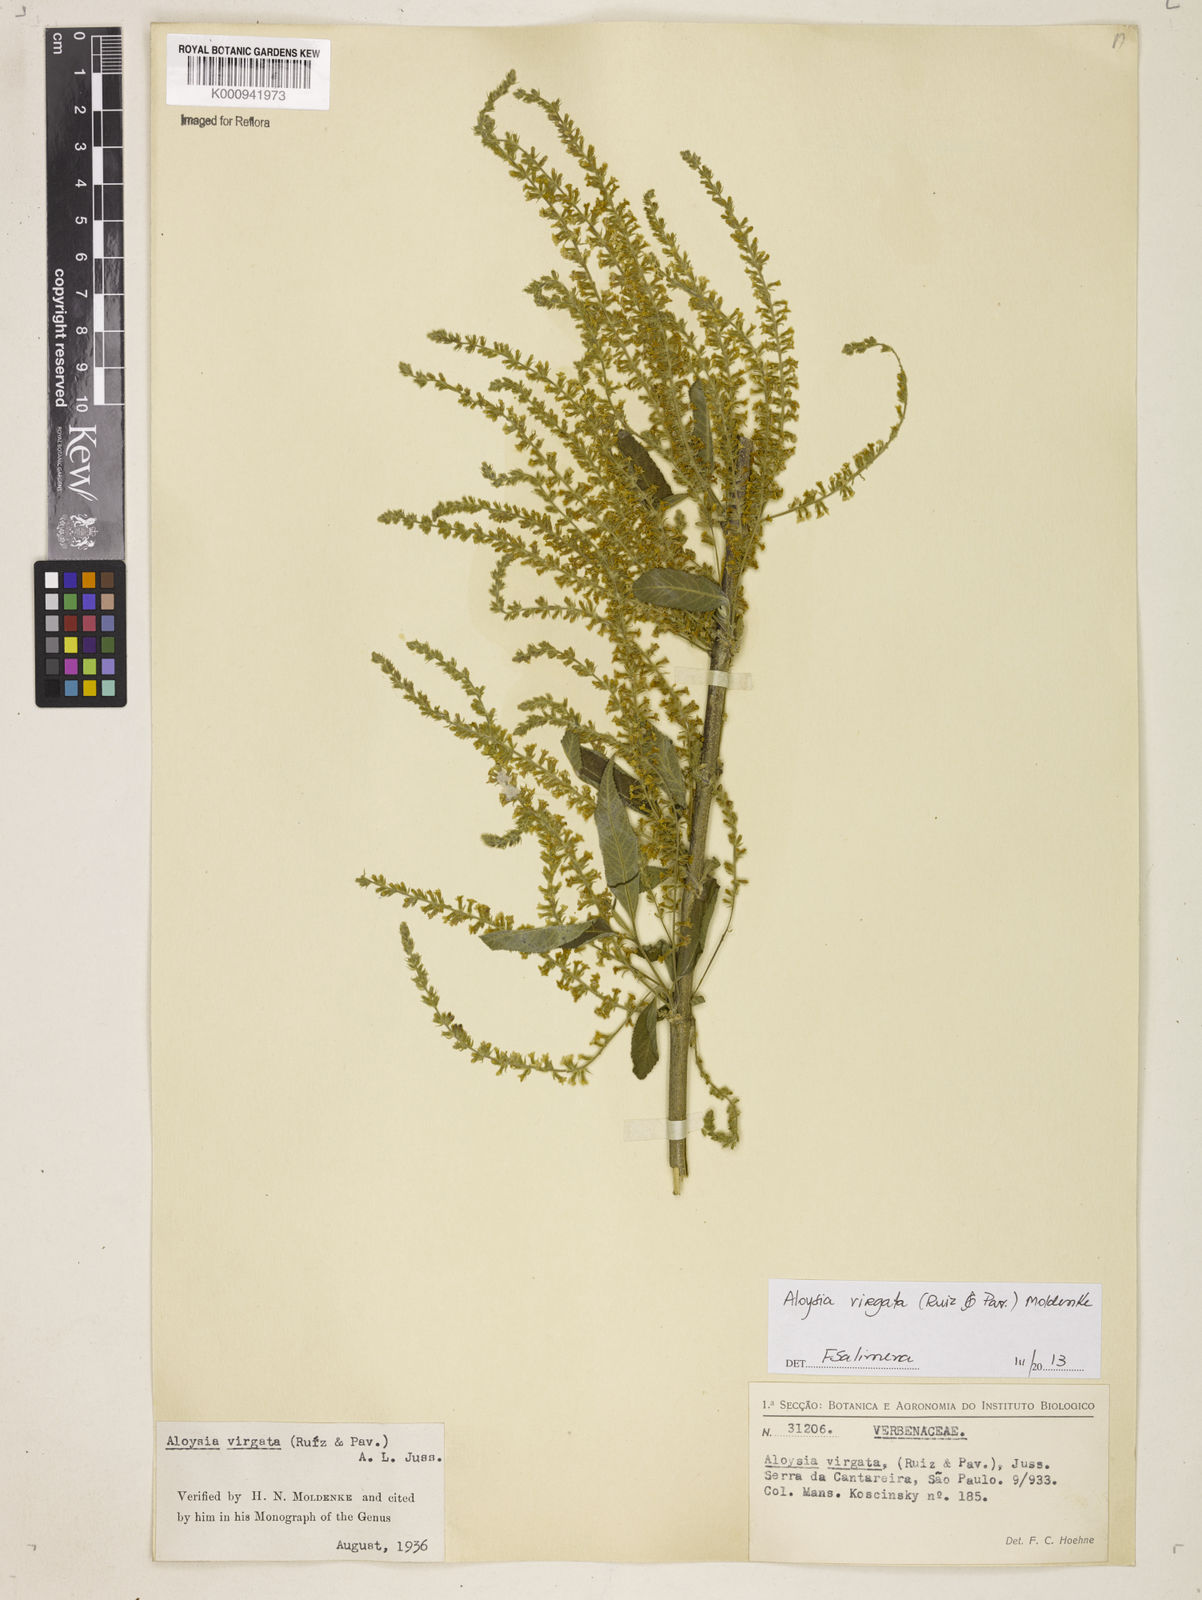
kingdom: Plantae
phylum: Tracheophyta
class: Magnoliopsida
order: Lamiales
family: Verbenaceae
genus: Aloysia
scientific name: Aloysia
